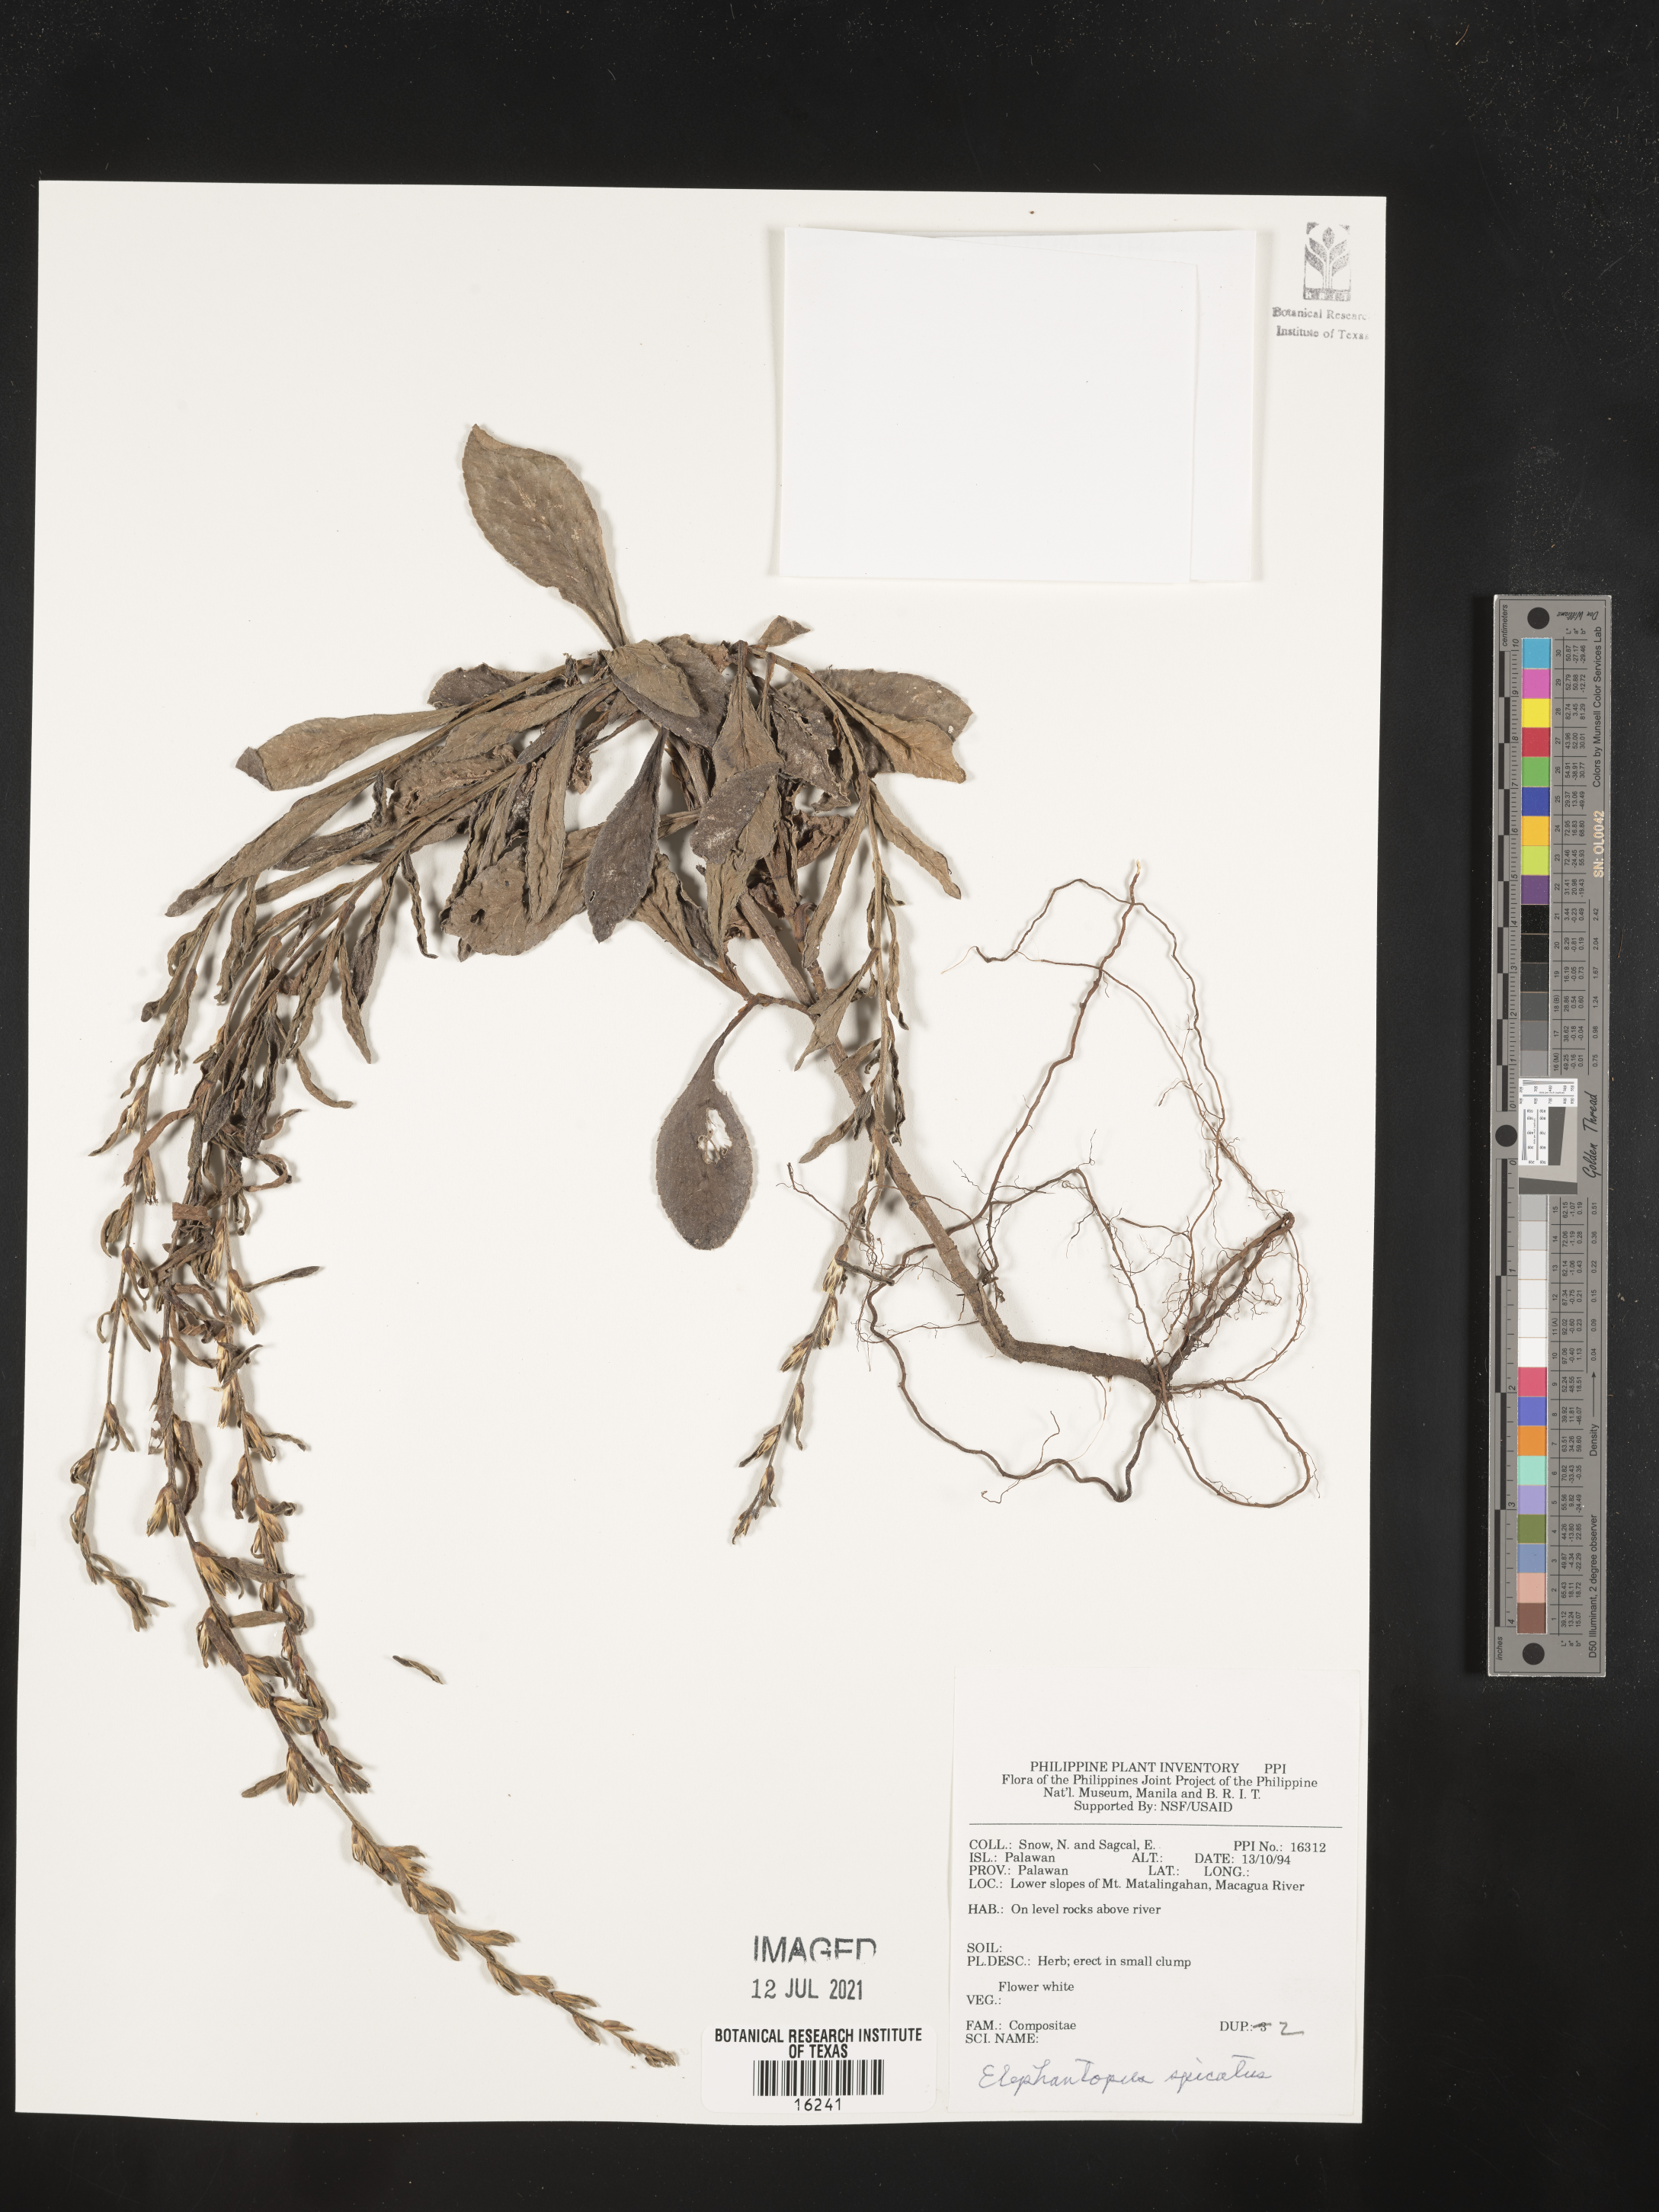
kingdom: Plantae
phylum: Tracheophyta
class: Magnoliopsida
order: Asterales
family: Asteraceae
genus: Pseudelephantopus
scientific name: Pseudelephantopus spicatus
